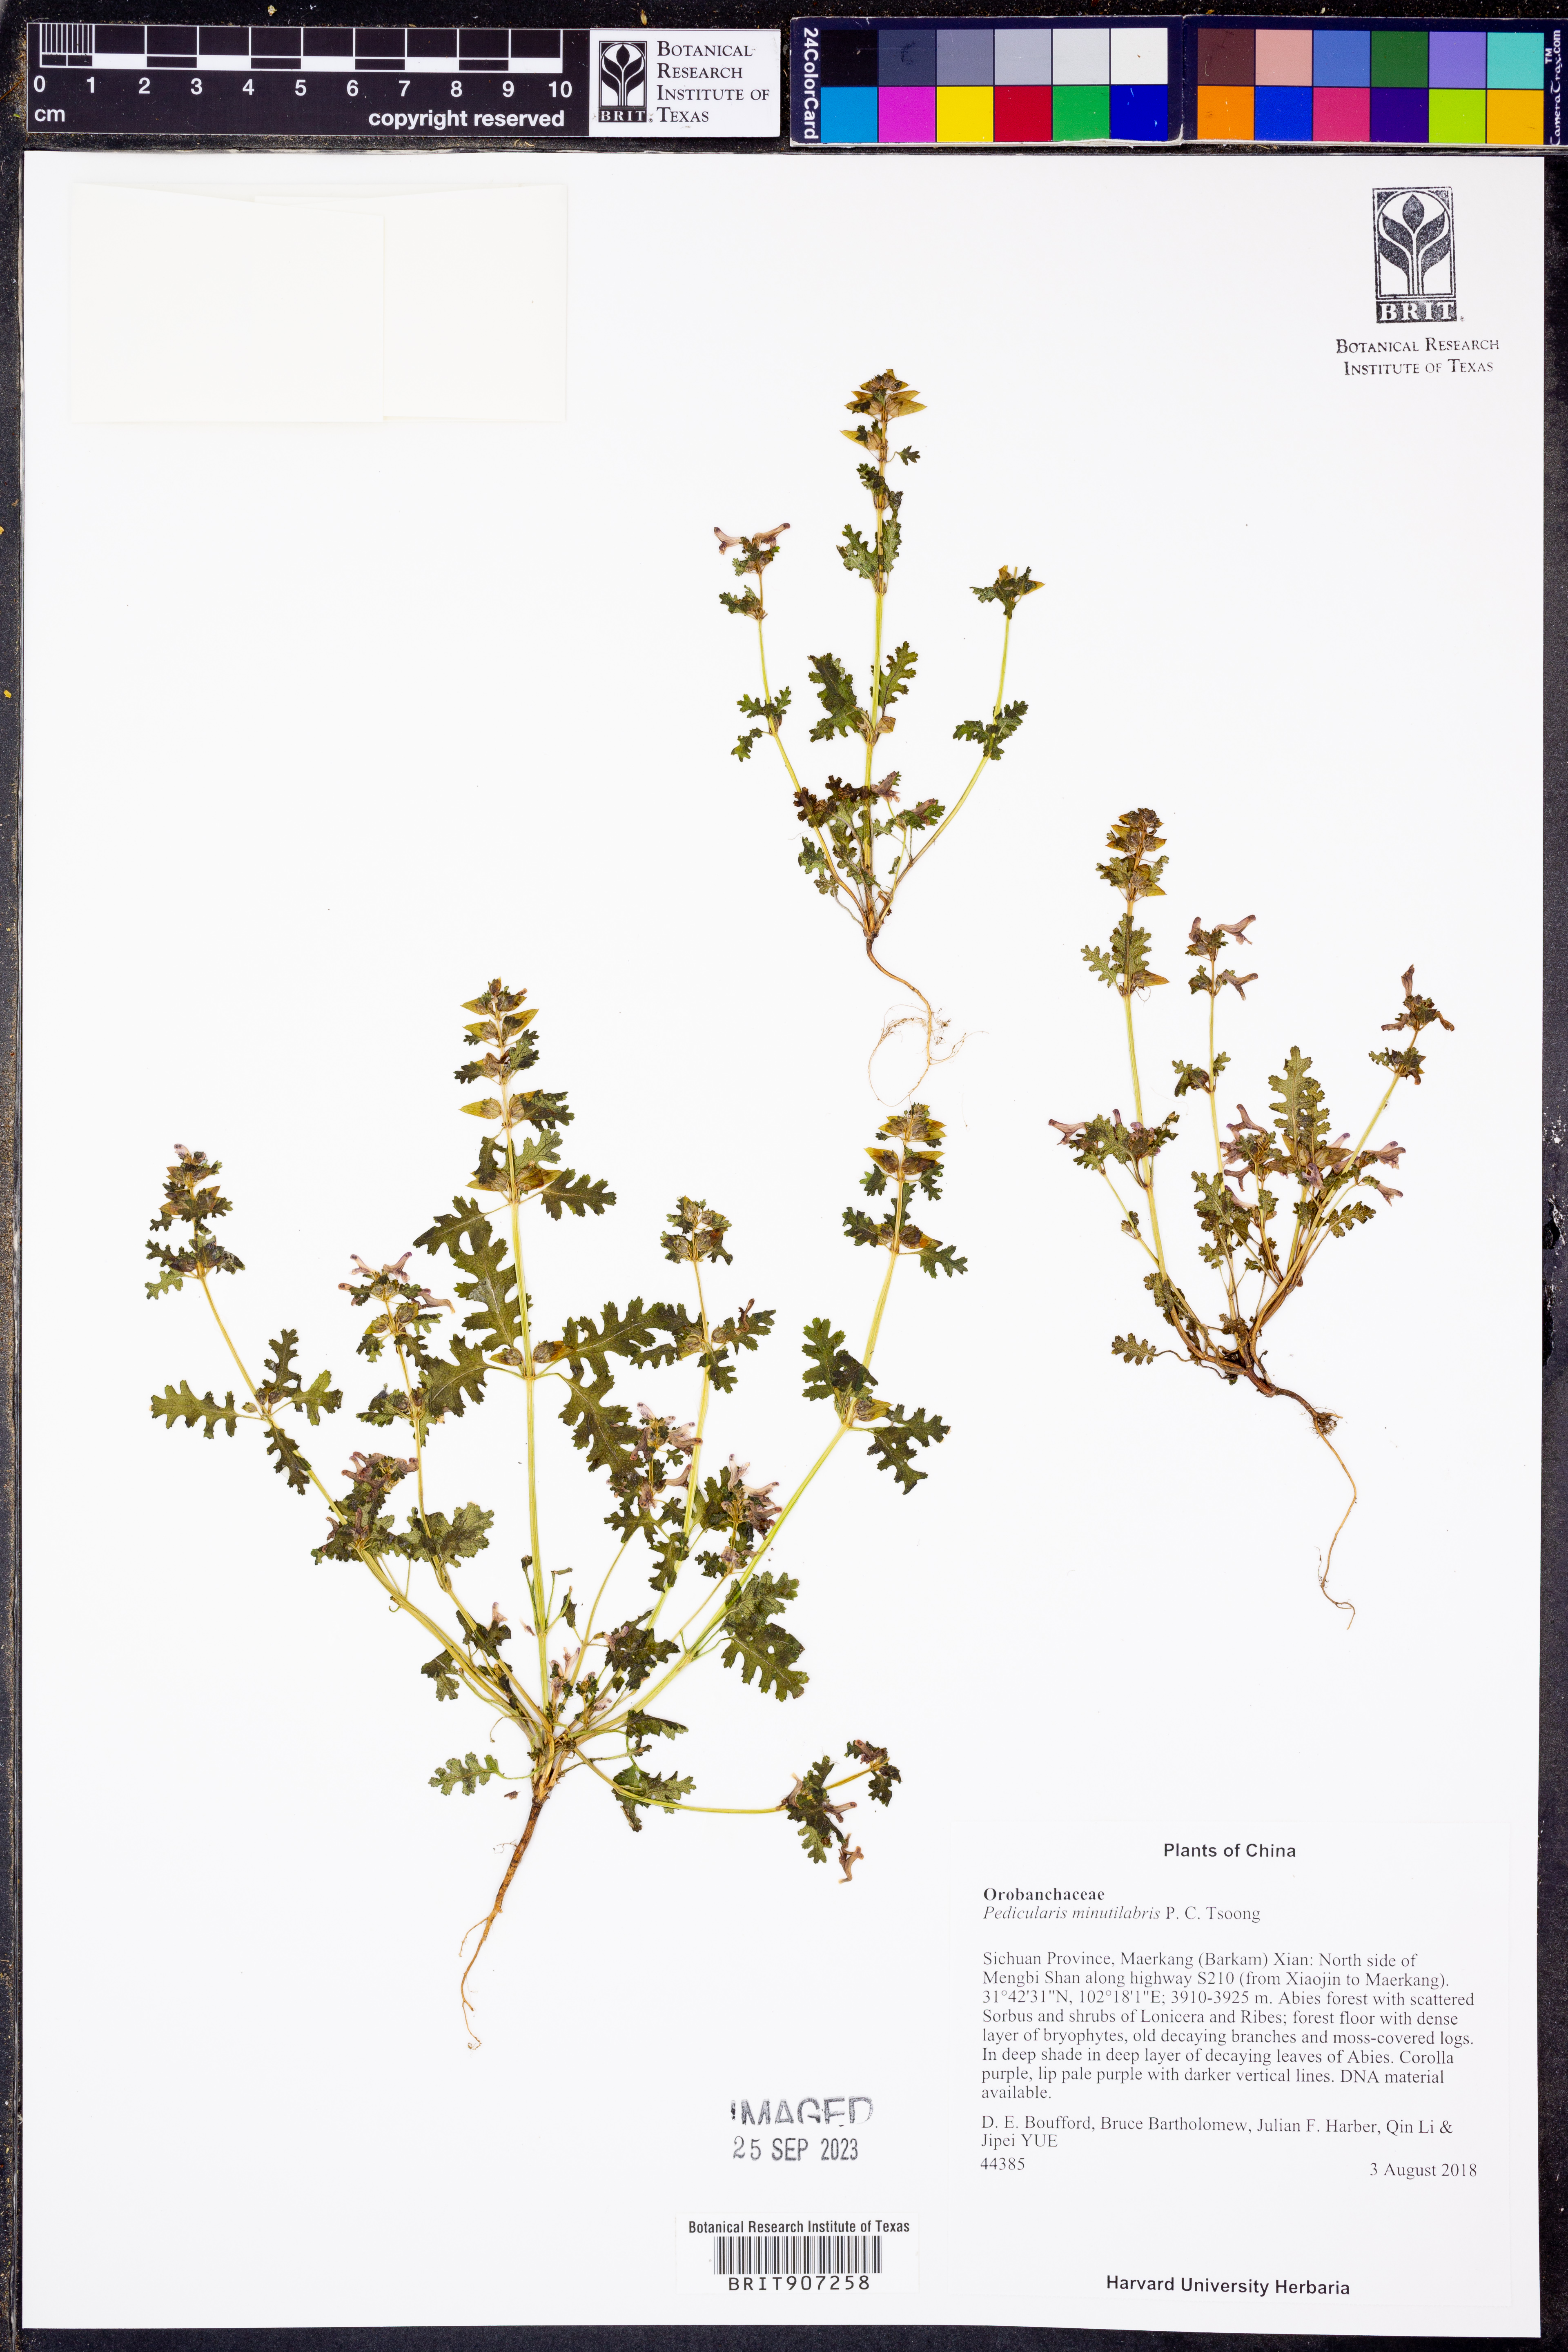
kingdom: Plantae
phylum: Tracheophyta
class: Magnoliopsida
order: Lamiales
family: Orobanchaceae
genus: Pedicularis
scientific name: Pedicularis minutilabris
